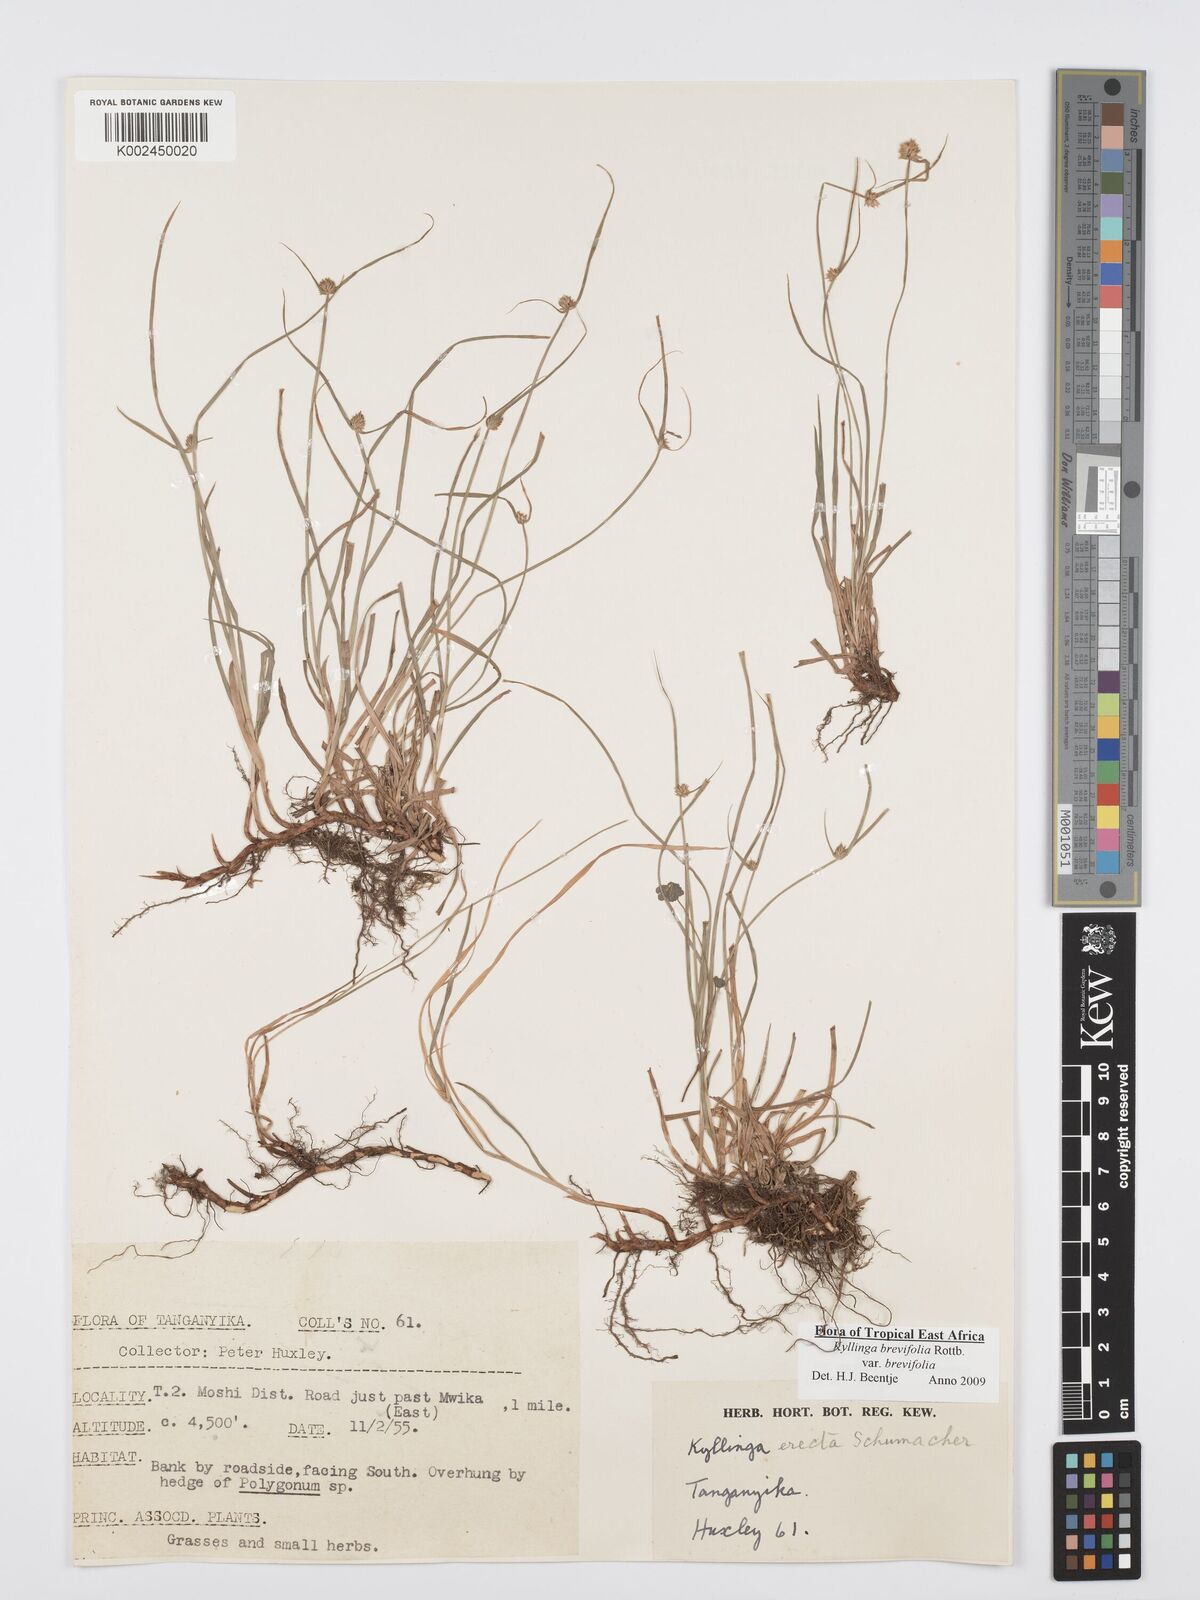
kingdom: Plantae
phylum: Tracheophyta
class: Liliopsida
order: Poales
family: Cyperaceae
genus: Cyperus
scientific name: Cyperus brevifolius
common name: Globe kyllinga
